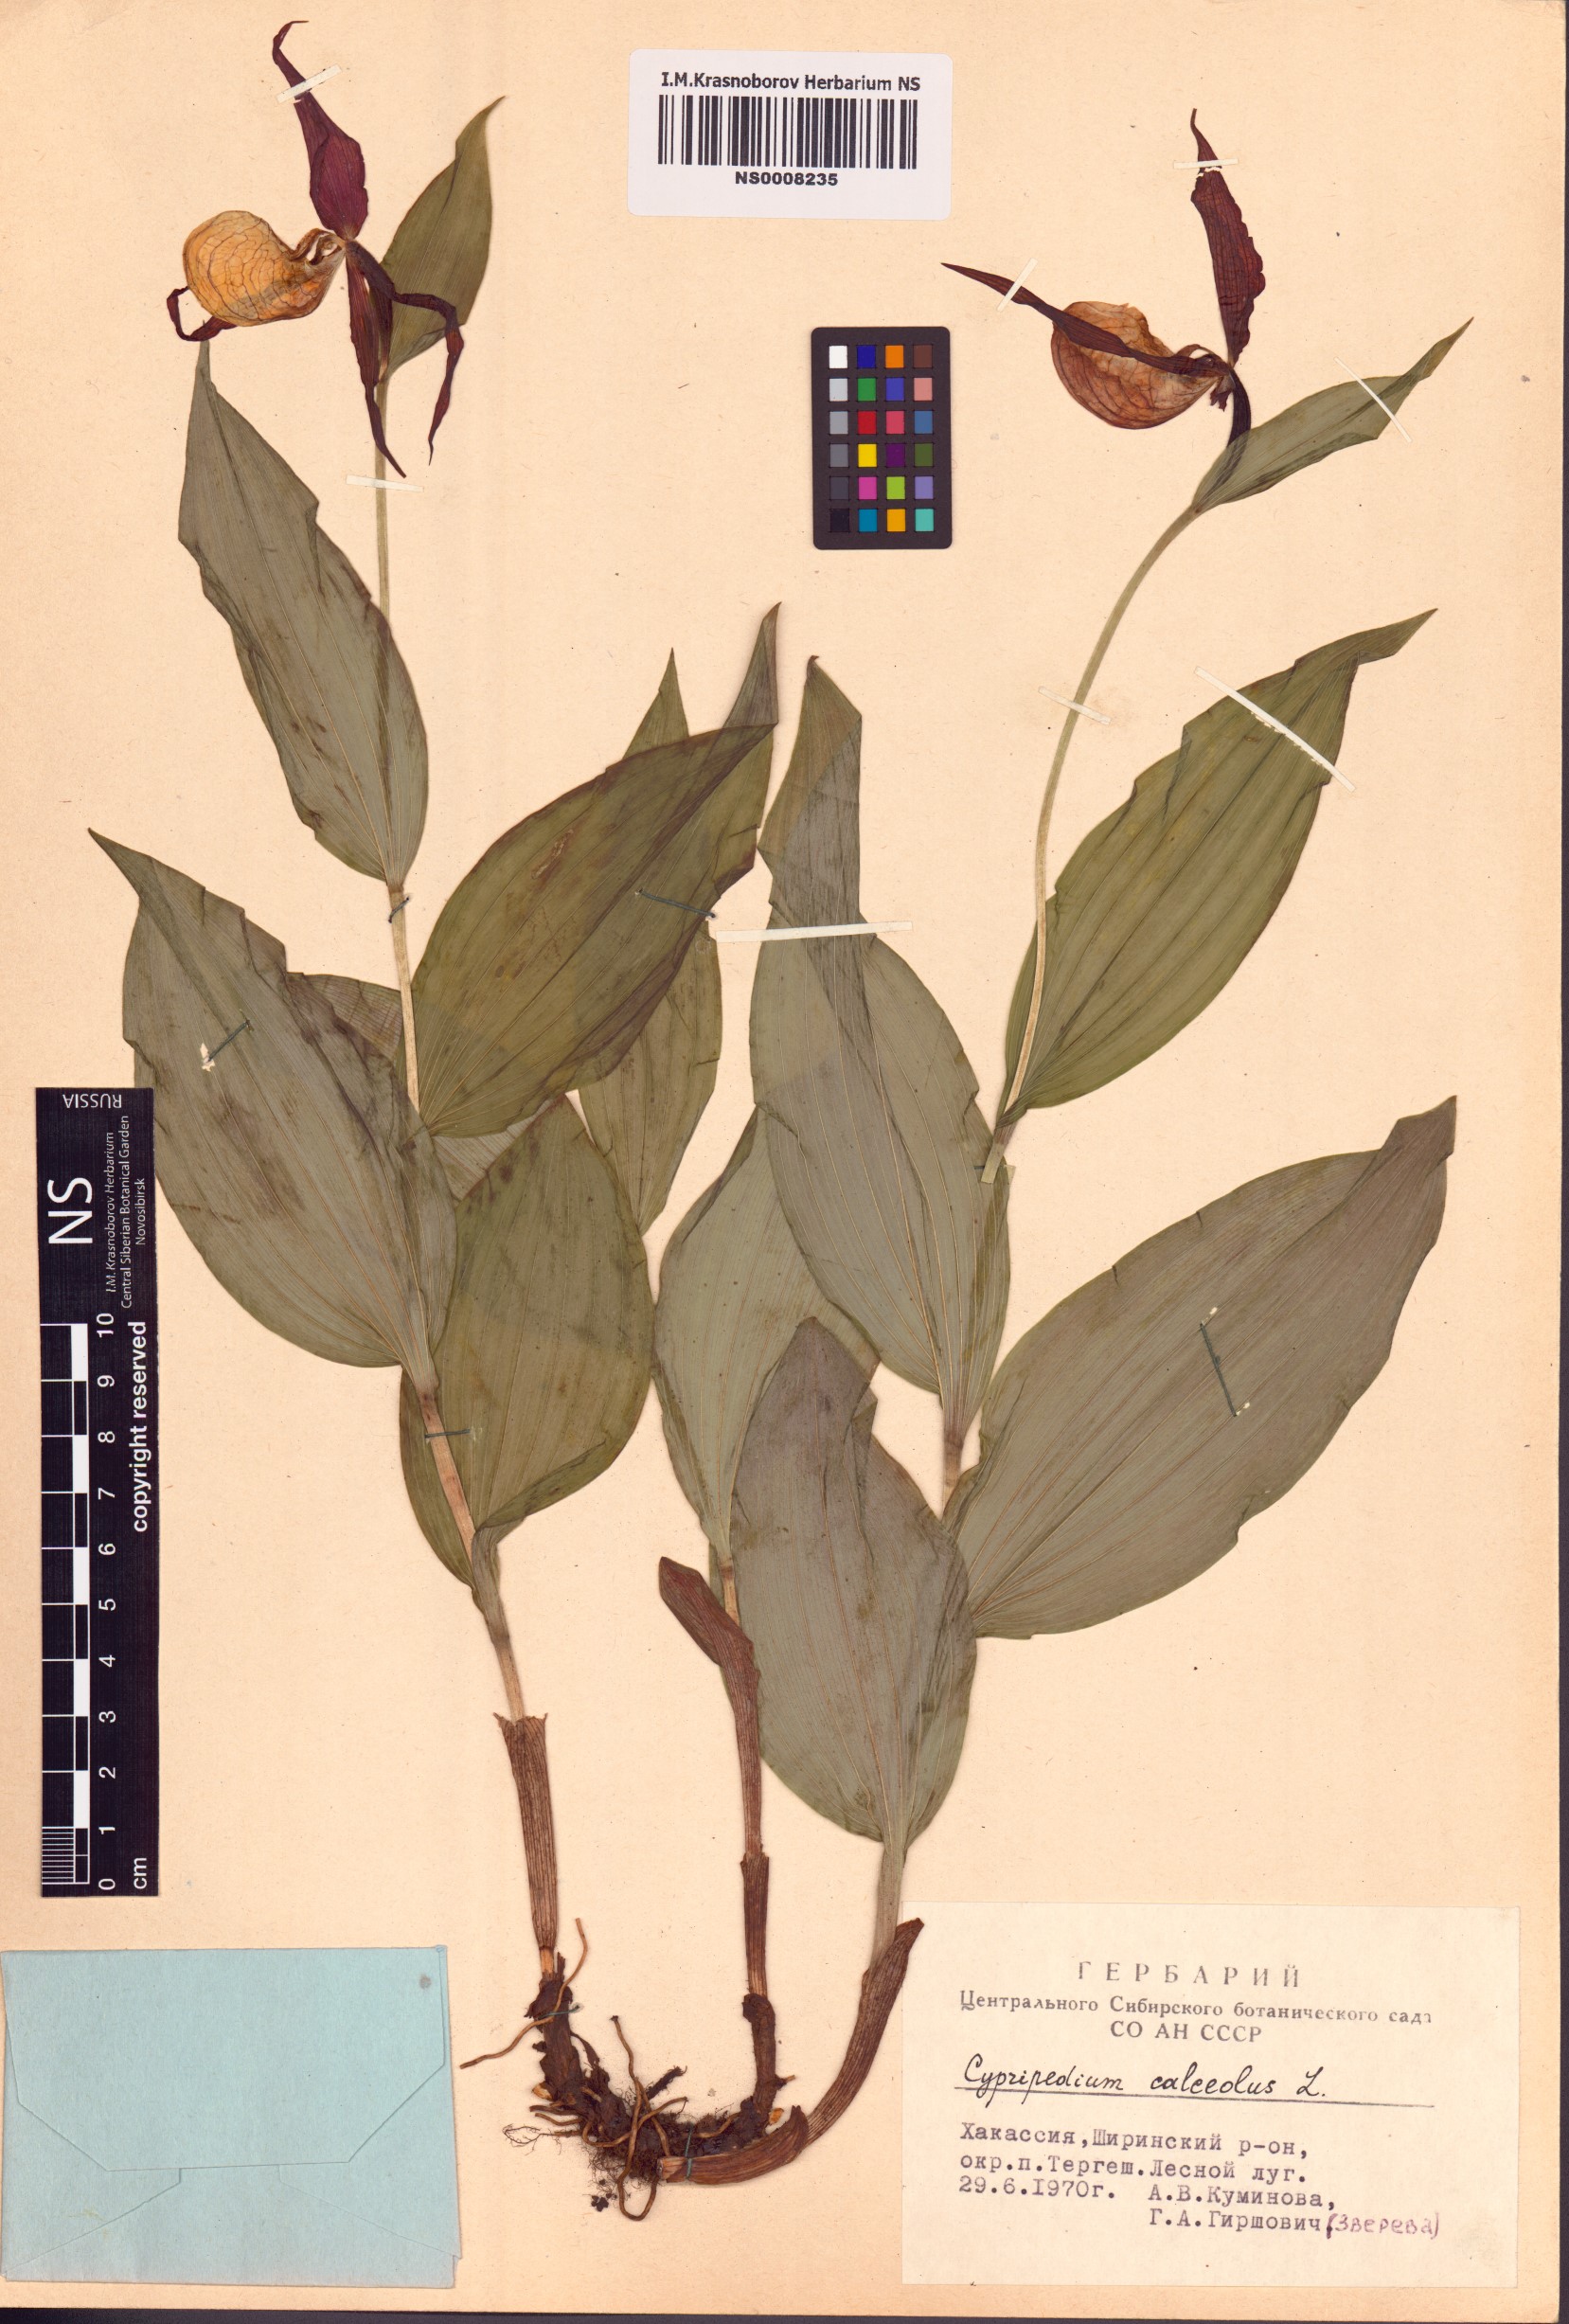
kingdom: Plantae
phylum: Tracheophyta
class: Liliopsida
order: Asparagales
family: Orchidaceae
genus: Cypripedium
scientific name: Cypripedium calceolus
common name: Lady's-slipper
